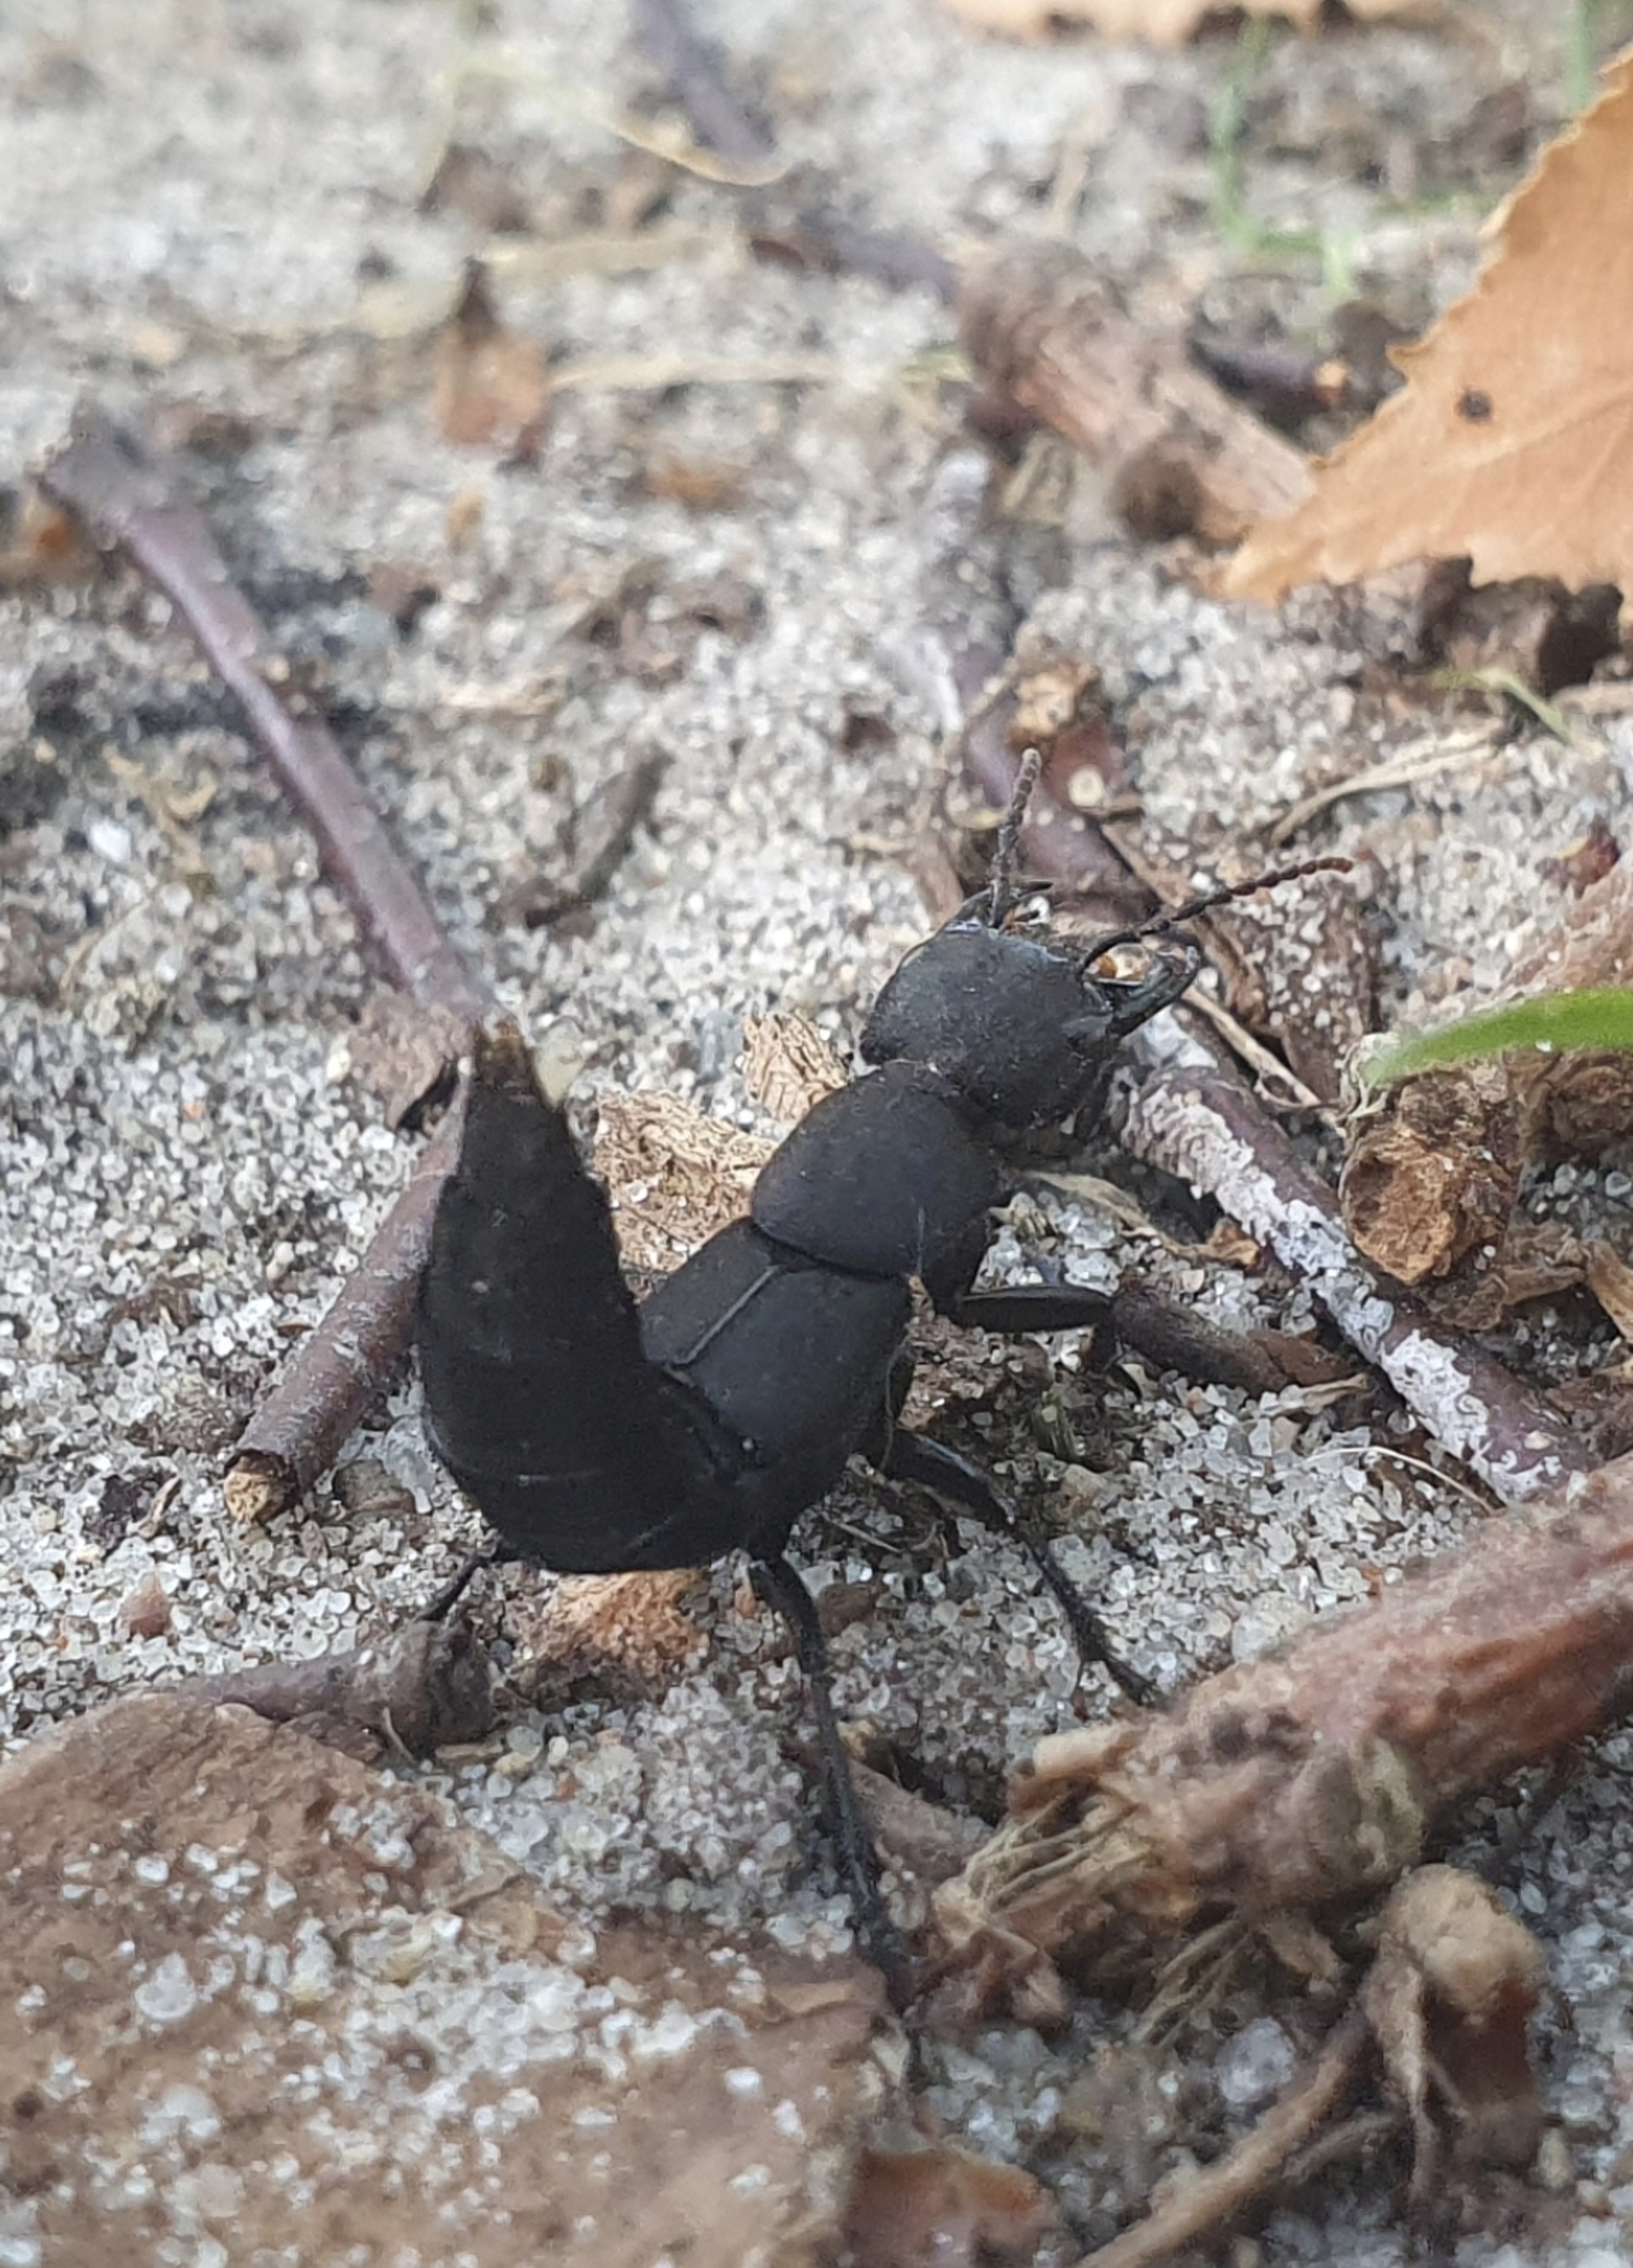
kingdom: Animalia
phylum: Arthropoda
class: Insecta
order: Coleoptera
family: Staphylinidae
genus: Ocypus
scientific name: Ocypus olens
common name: Stor rovbille
